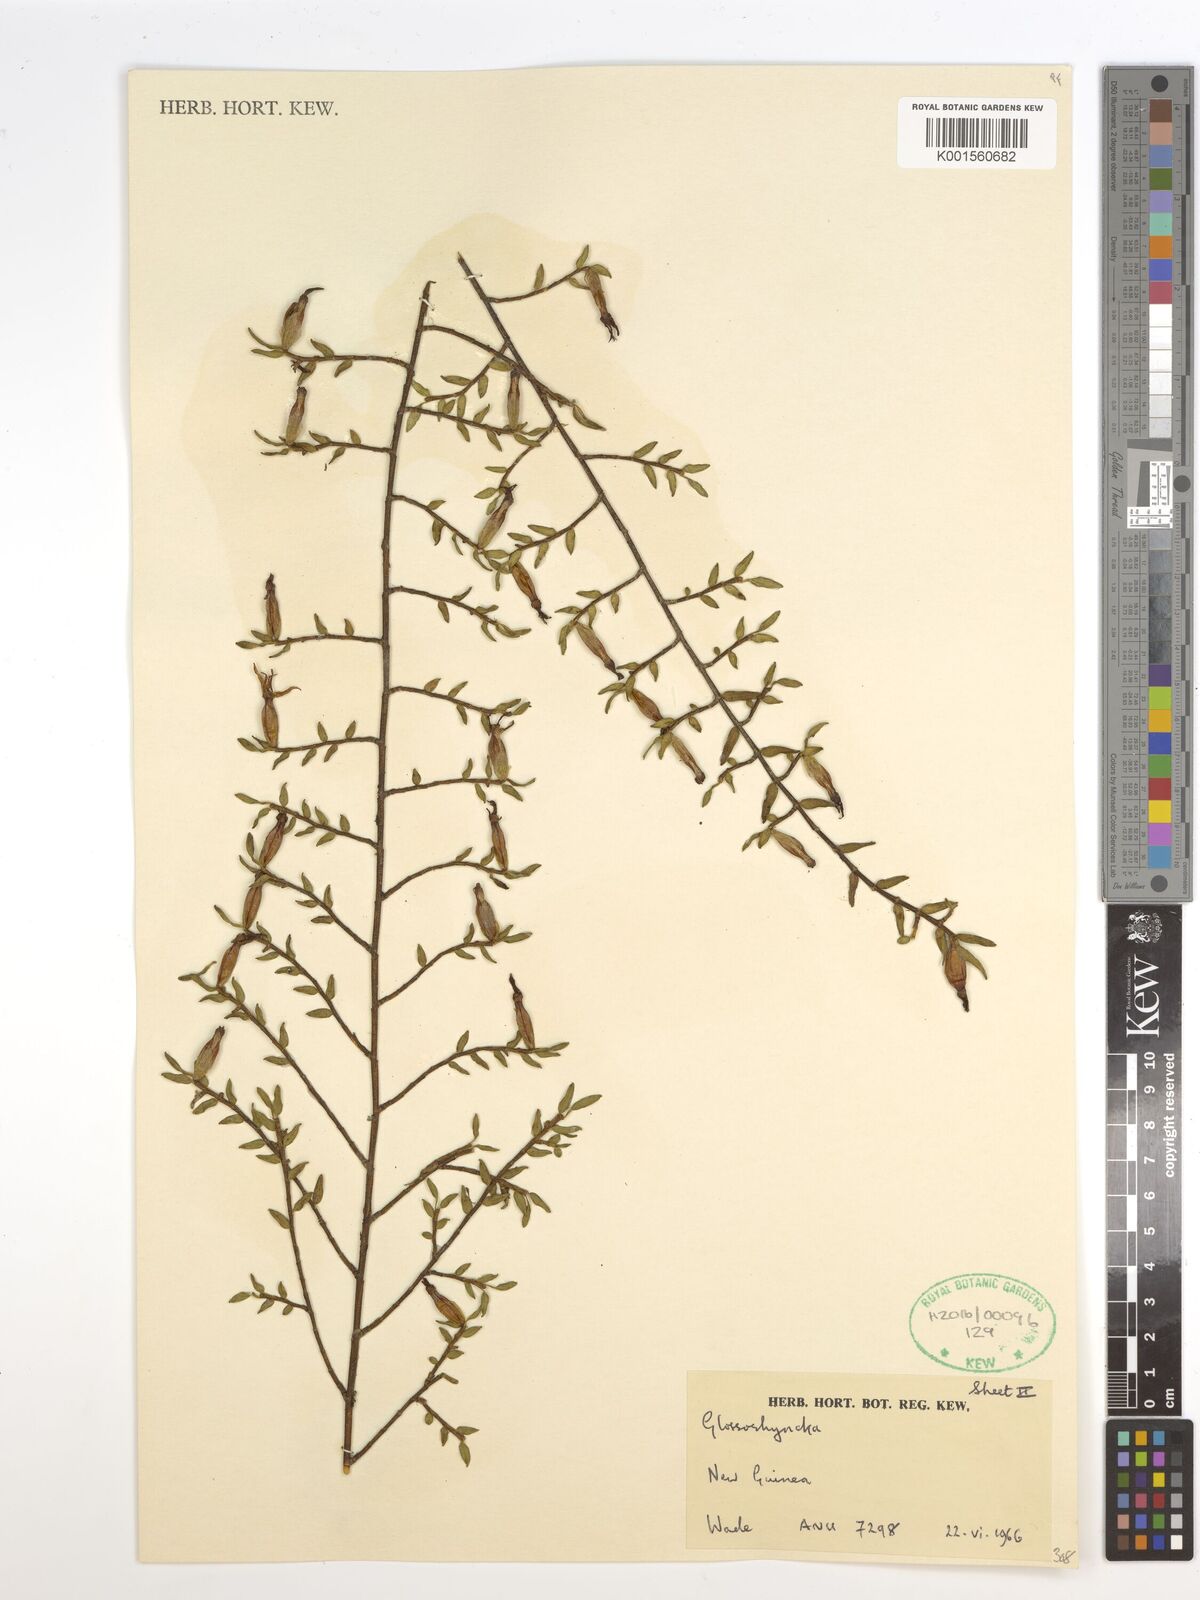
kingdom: Plantae
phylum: Tracheophyta
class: Liliopsida
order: Asparagales
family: Orchidaceae
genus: Glomera
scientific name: Glomera
